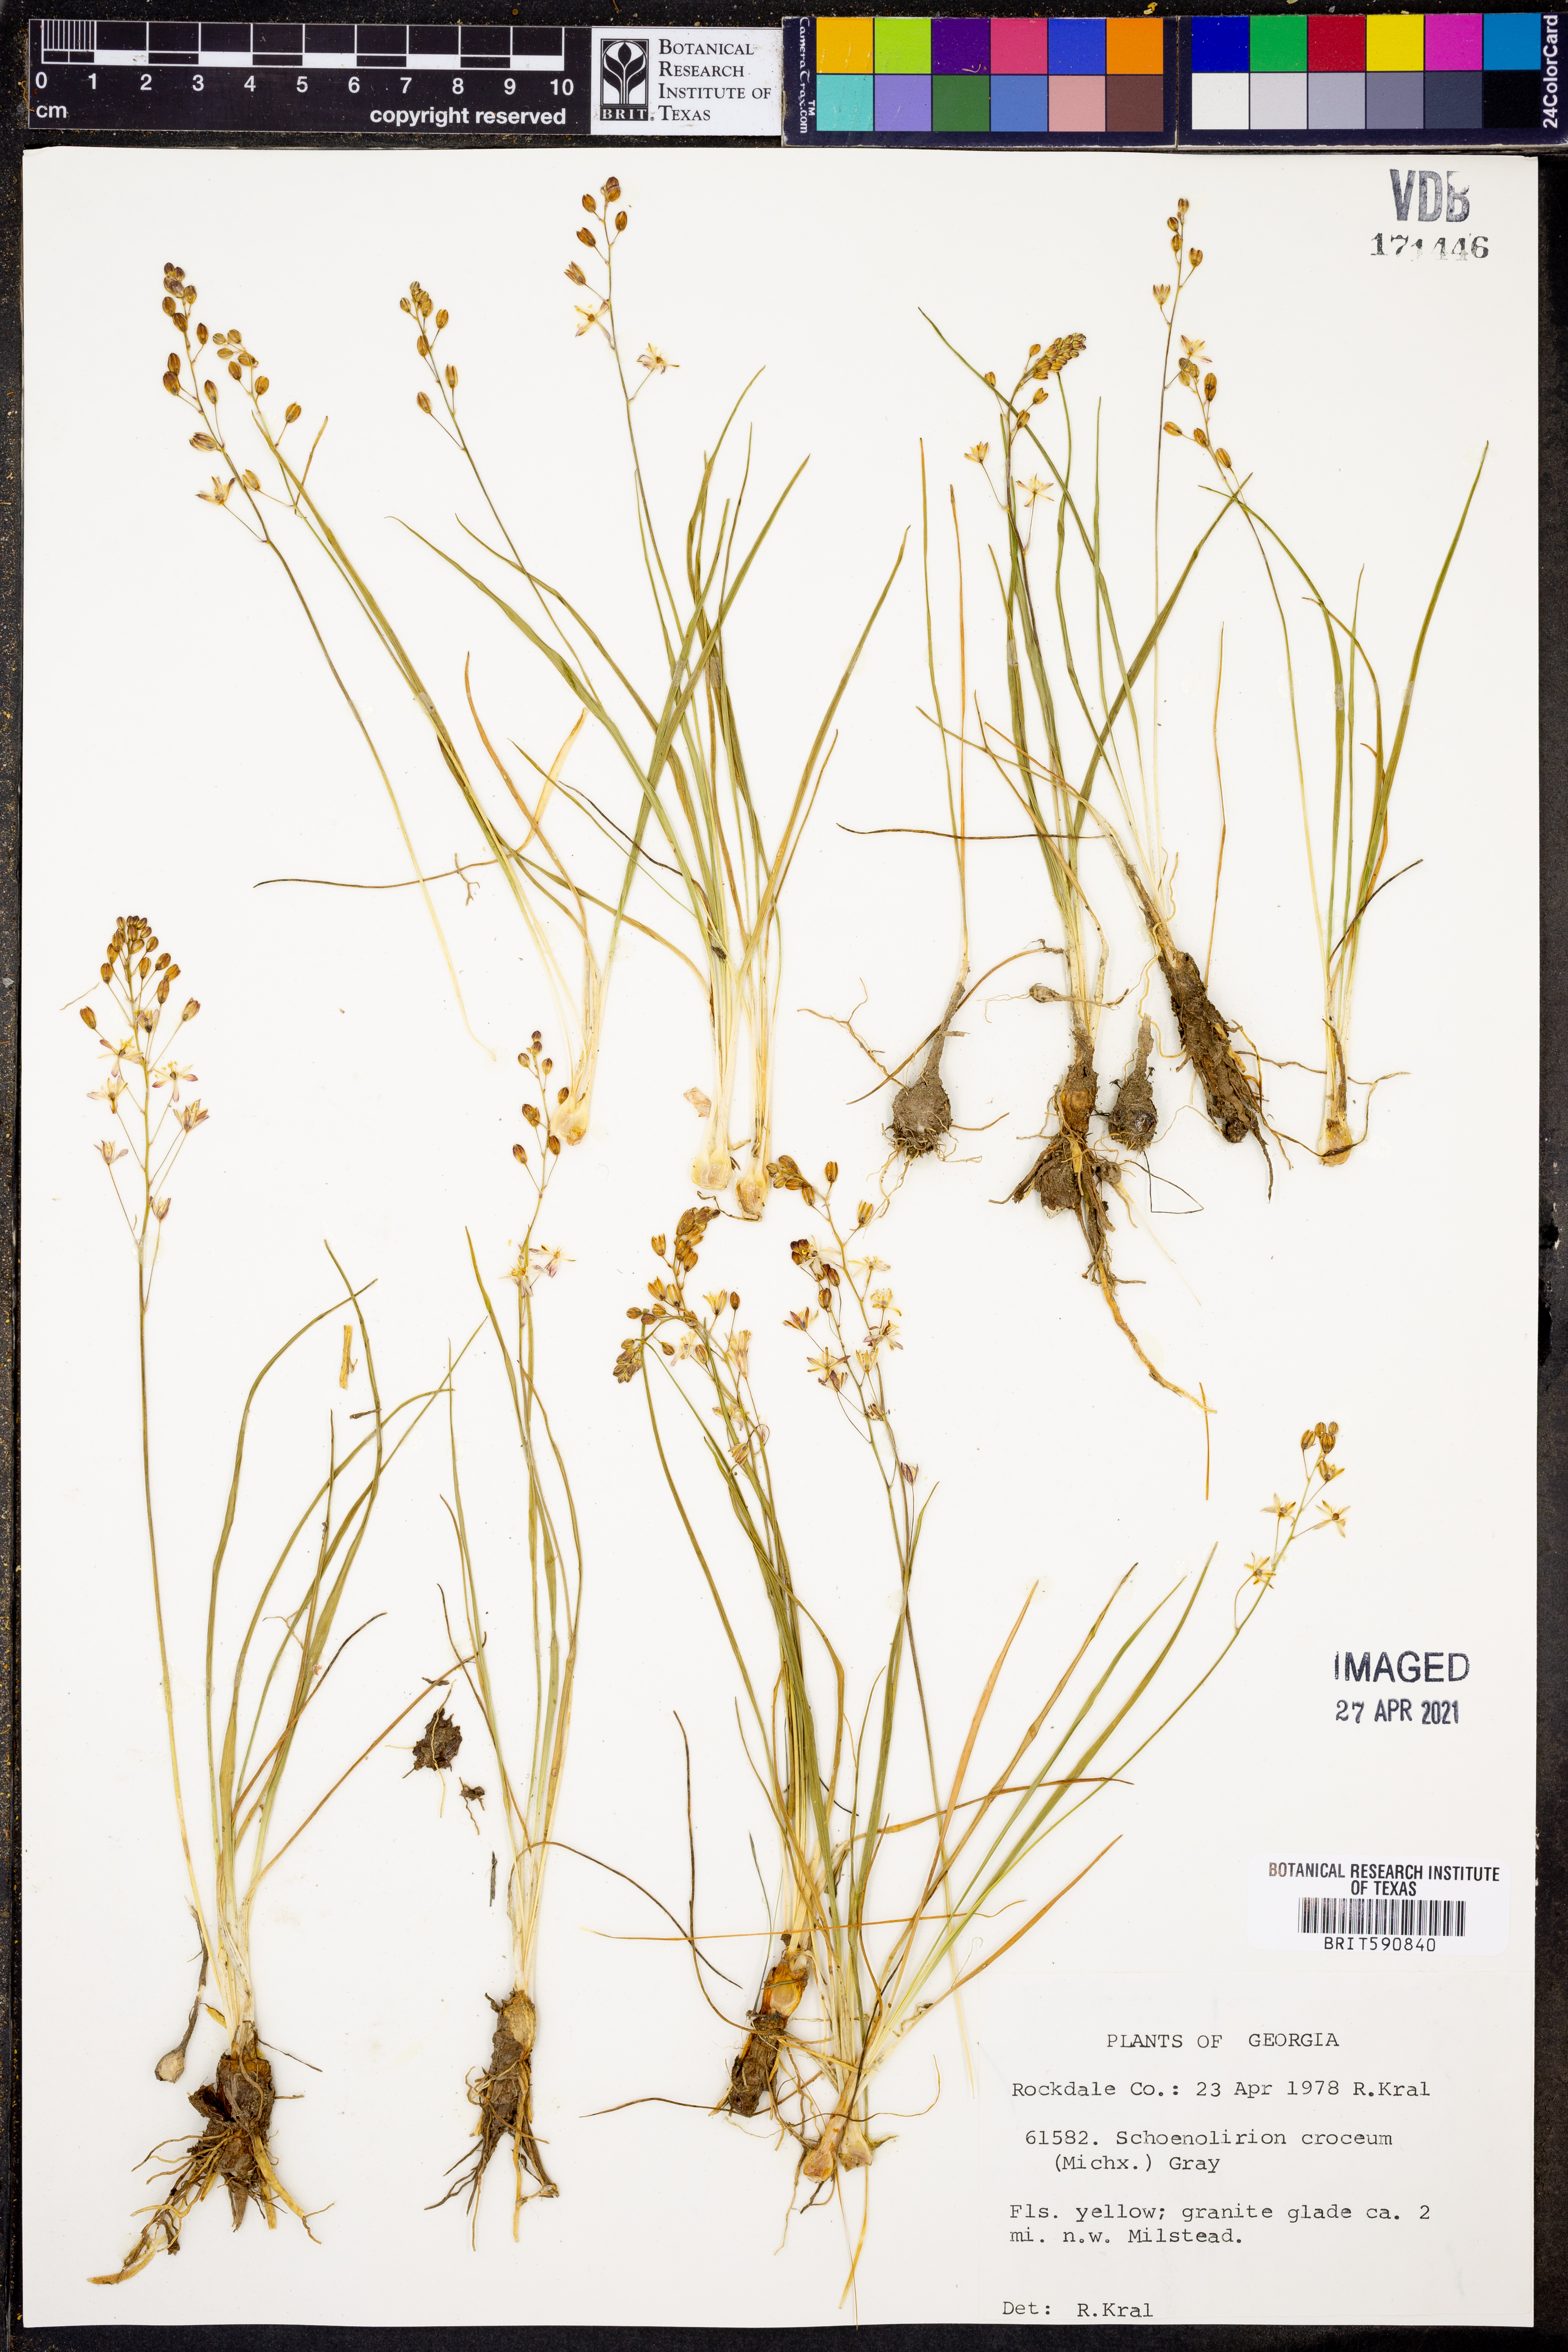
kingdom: Plantae
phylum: Tracheophyta
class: Liliopsida
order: Asparagales
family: Asparagaceae
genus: Schoenolirion
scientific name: Schoenolirion croceum
